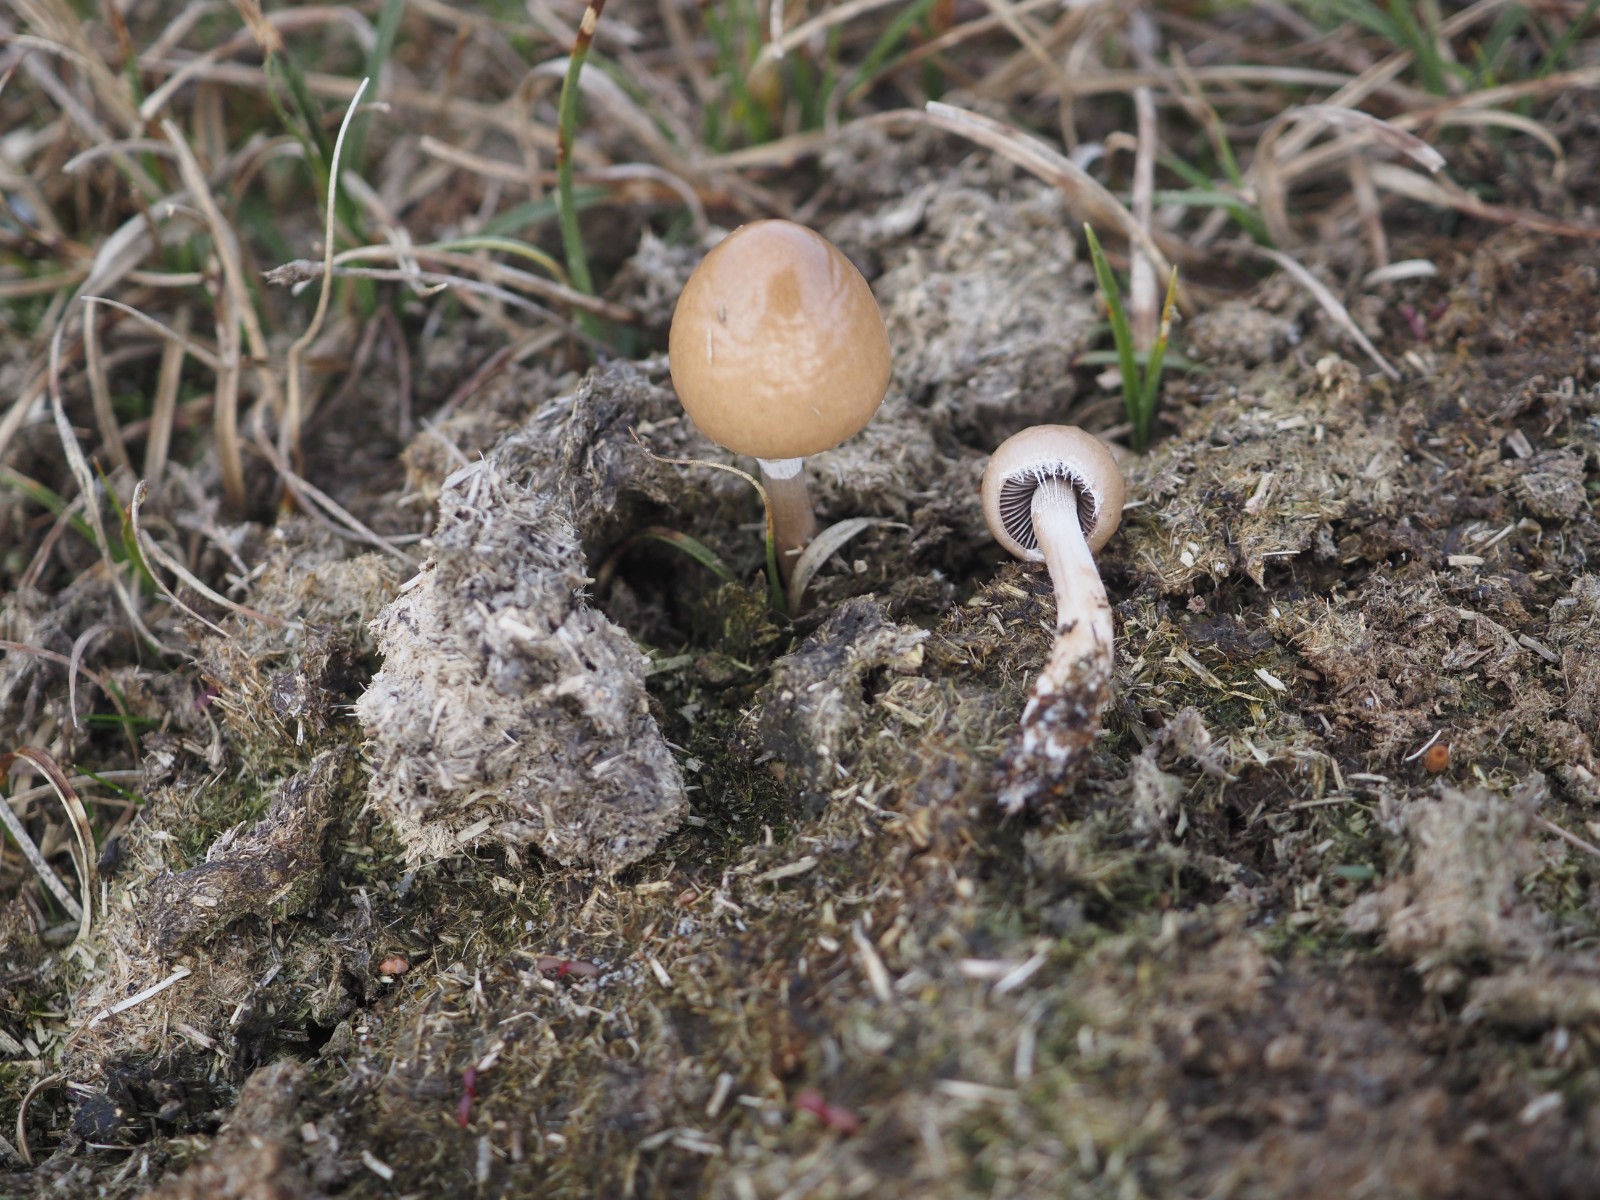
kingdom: Fungi
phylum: Basidiomycota
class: Agaricomycetes
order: Agaricales
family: Bolbitiaceae
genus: Panaeolus
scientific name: Panaeolus papilionaceus
